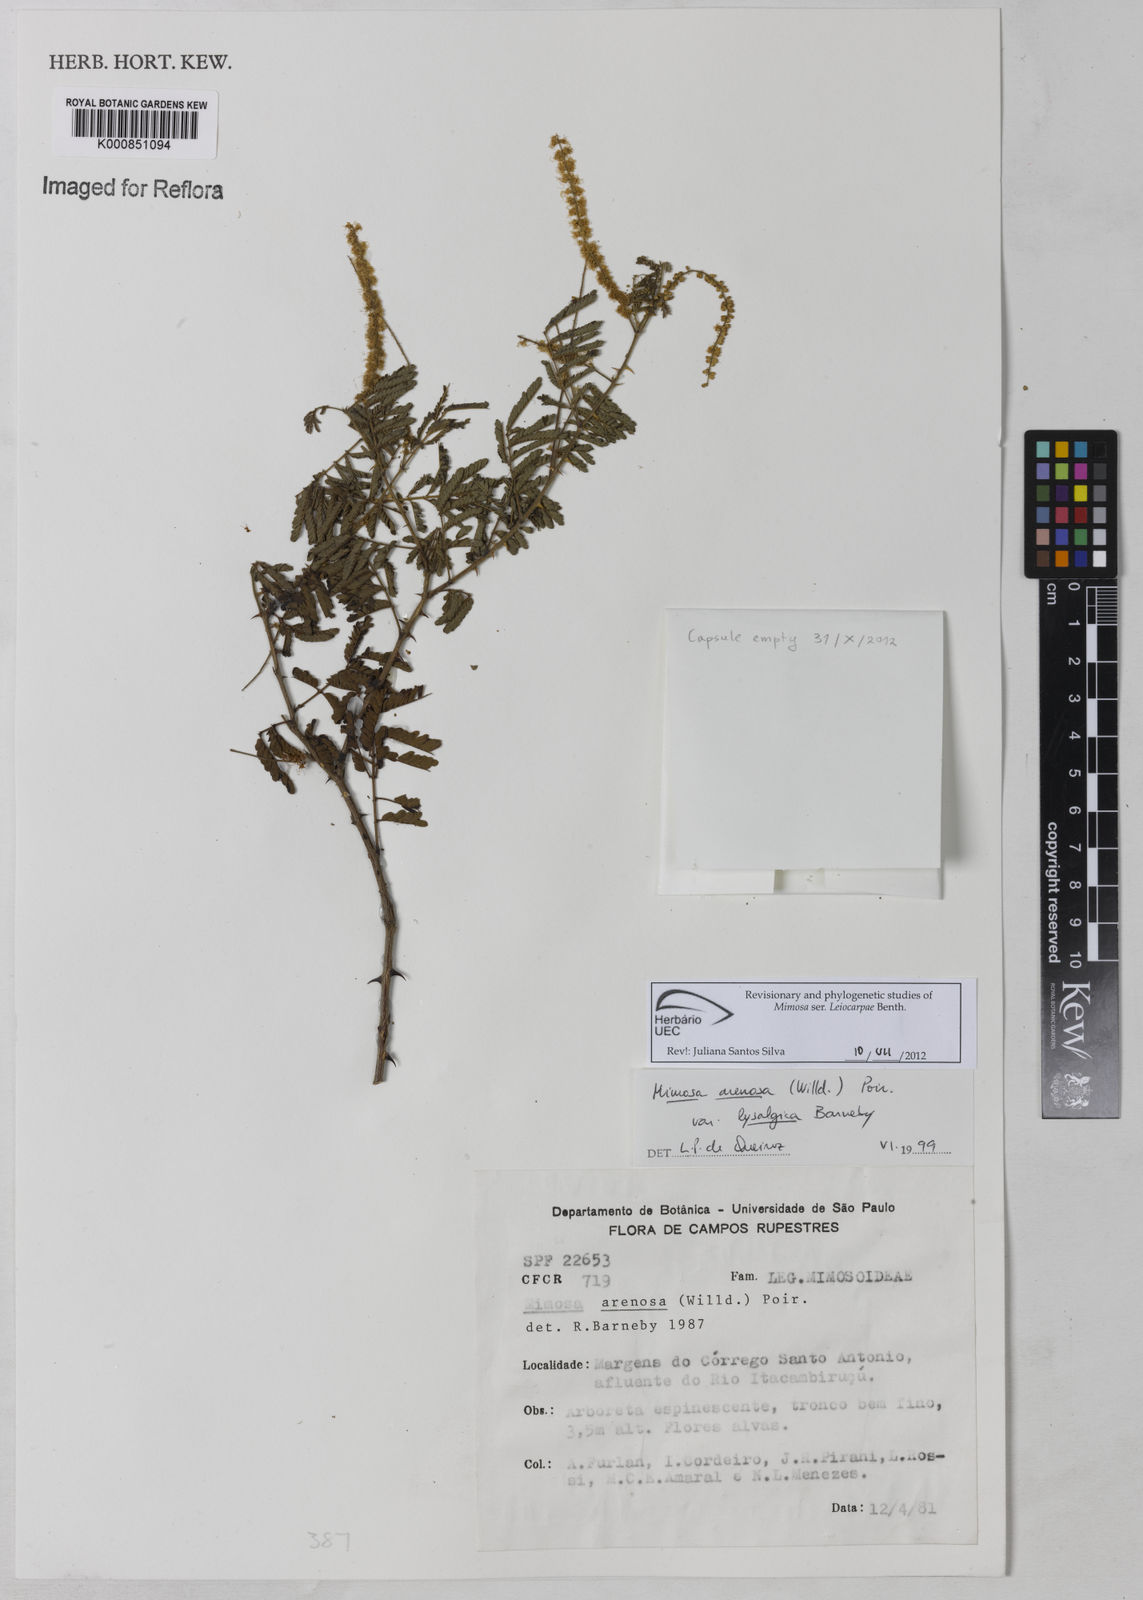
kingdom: Plantae
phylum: Tracheophyta
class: Magnoliopsida
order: Fabales
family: Fabaceae
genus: Mimosa
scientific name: Mimosa arenosa
